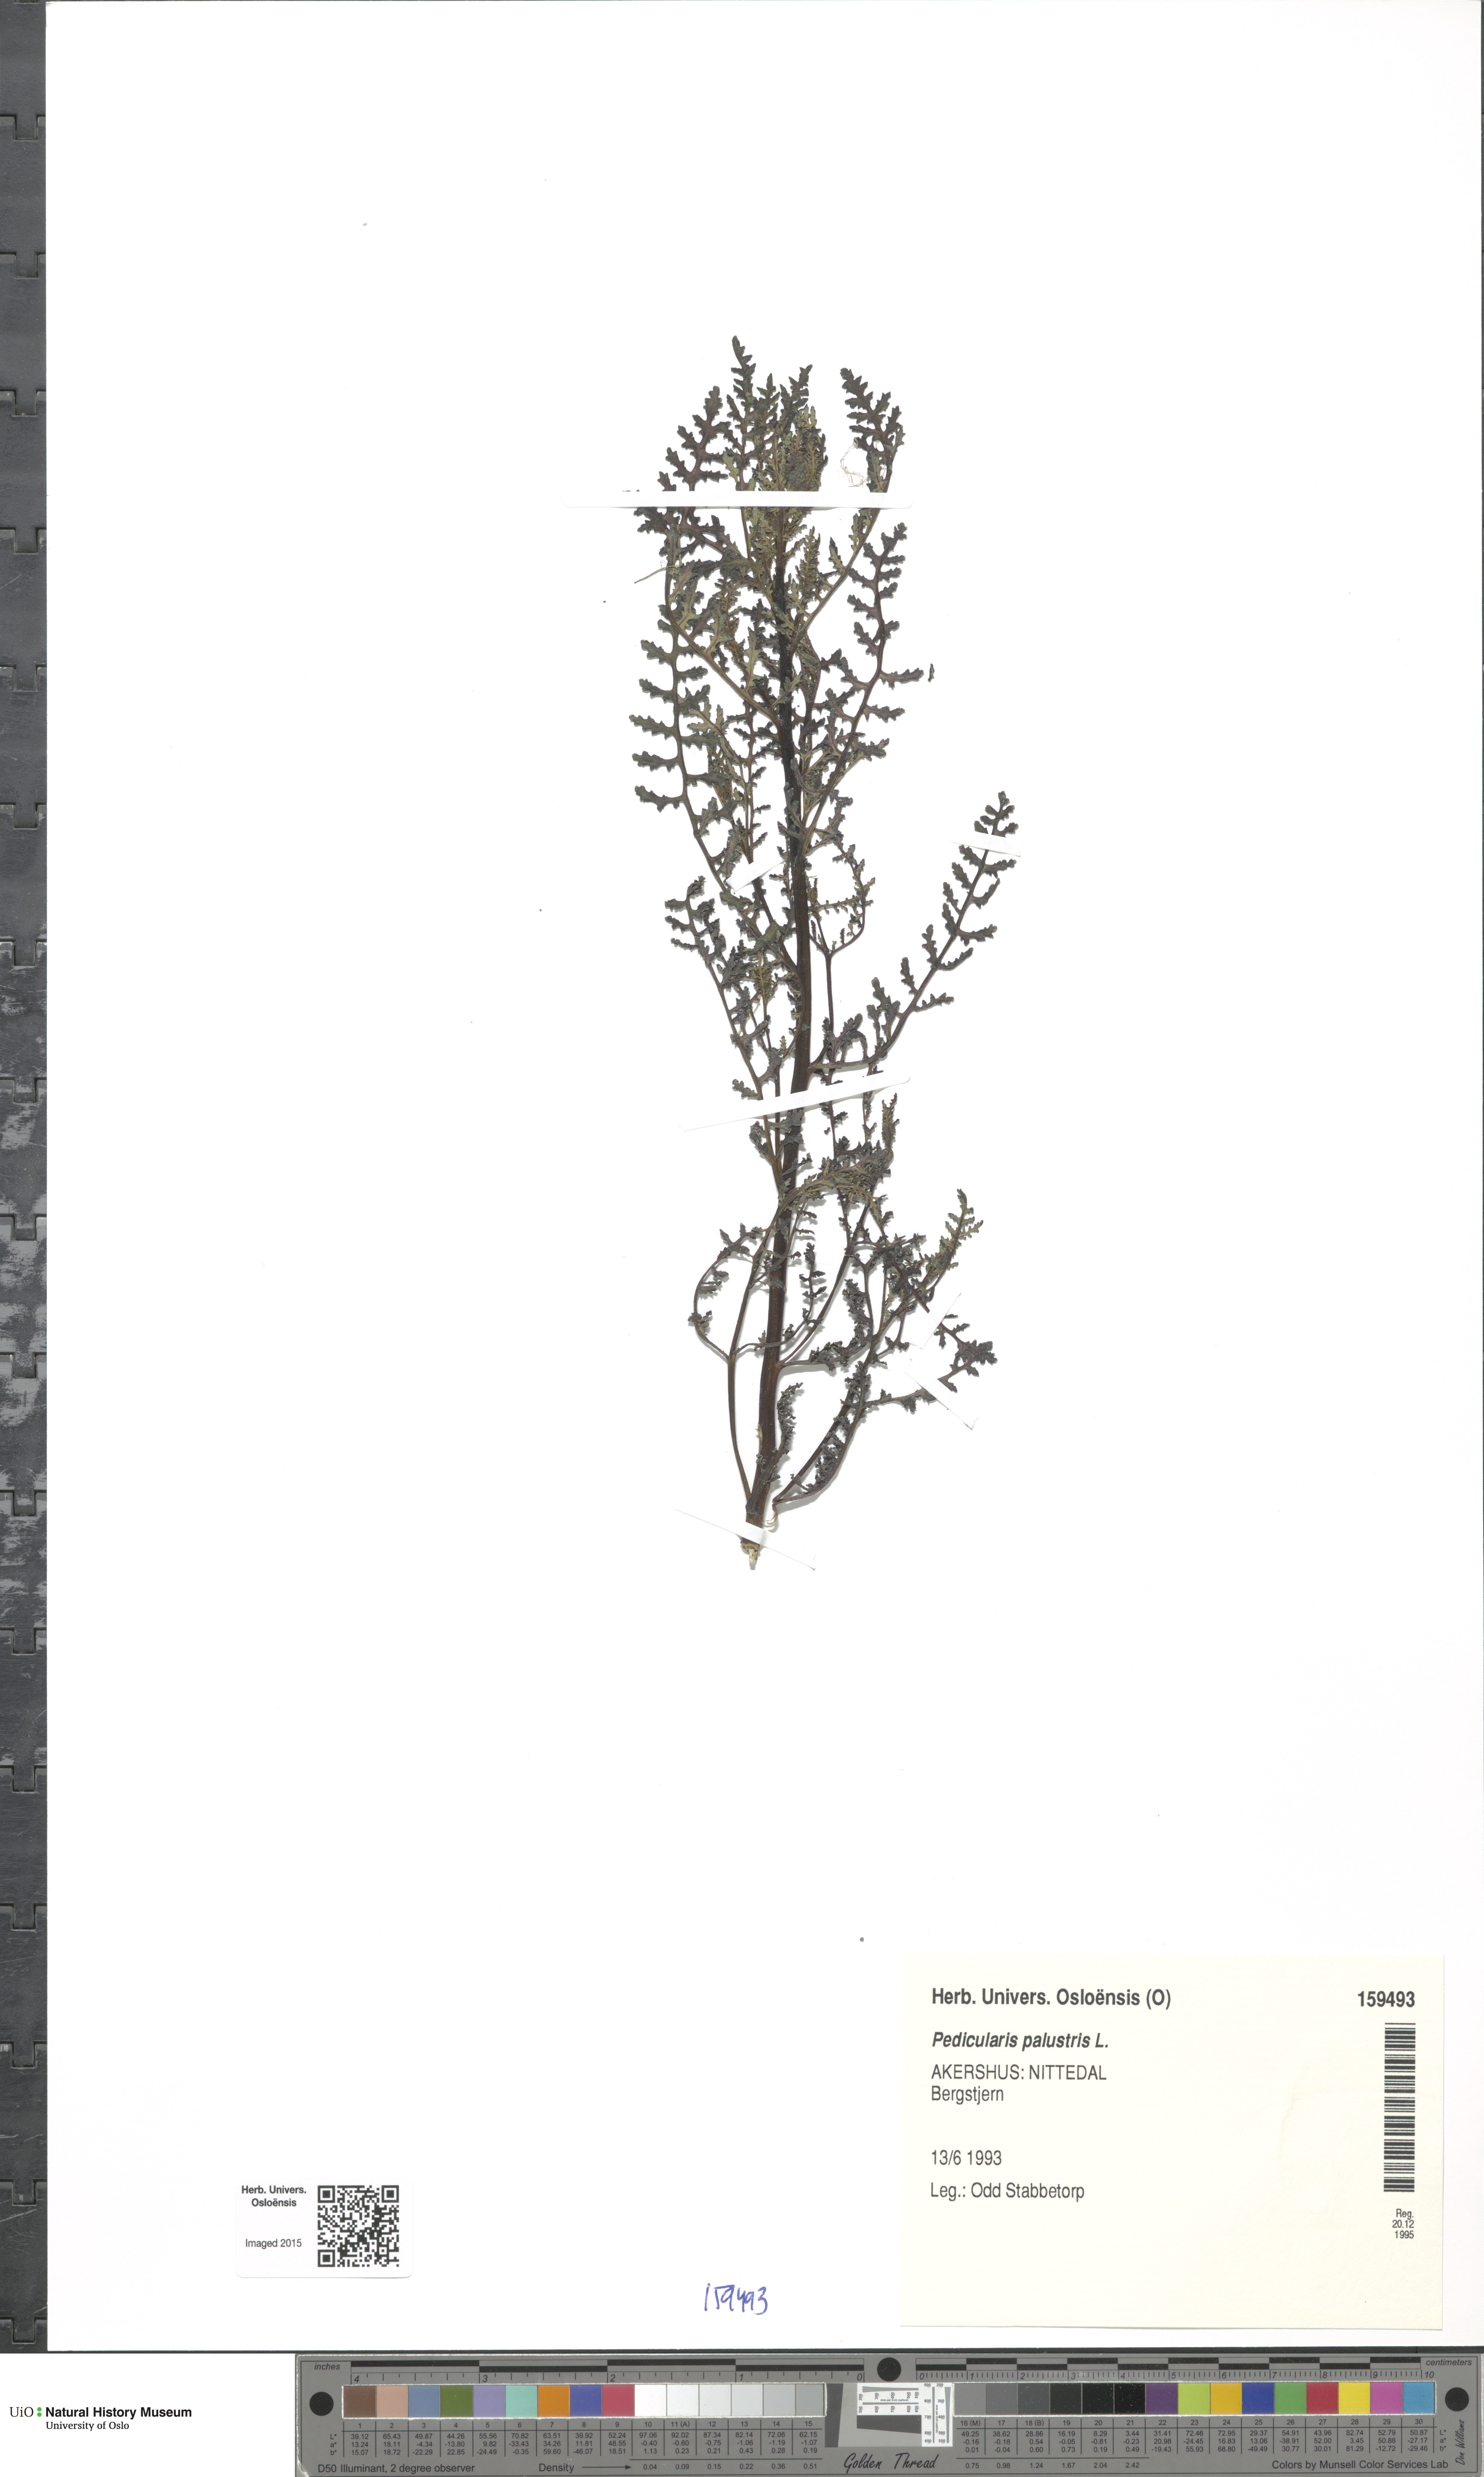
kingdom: Plantae
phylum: Tracheophyta
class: Magnoliopsida
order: Lamiales
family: Orobanchaceae
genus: Pedicularis
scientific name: Pedicularis palustris
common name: Marsh lousewort
